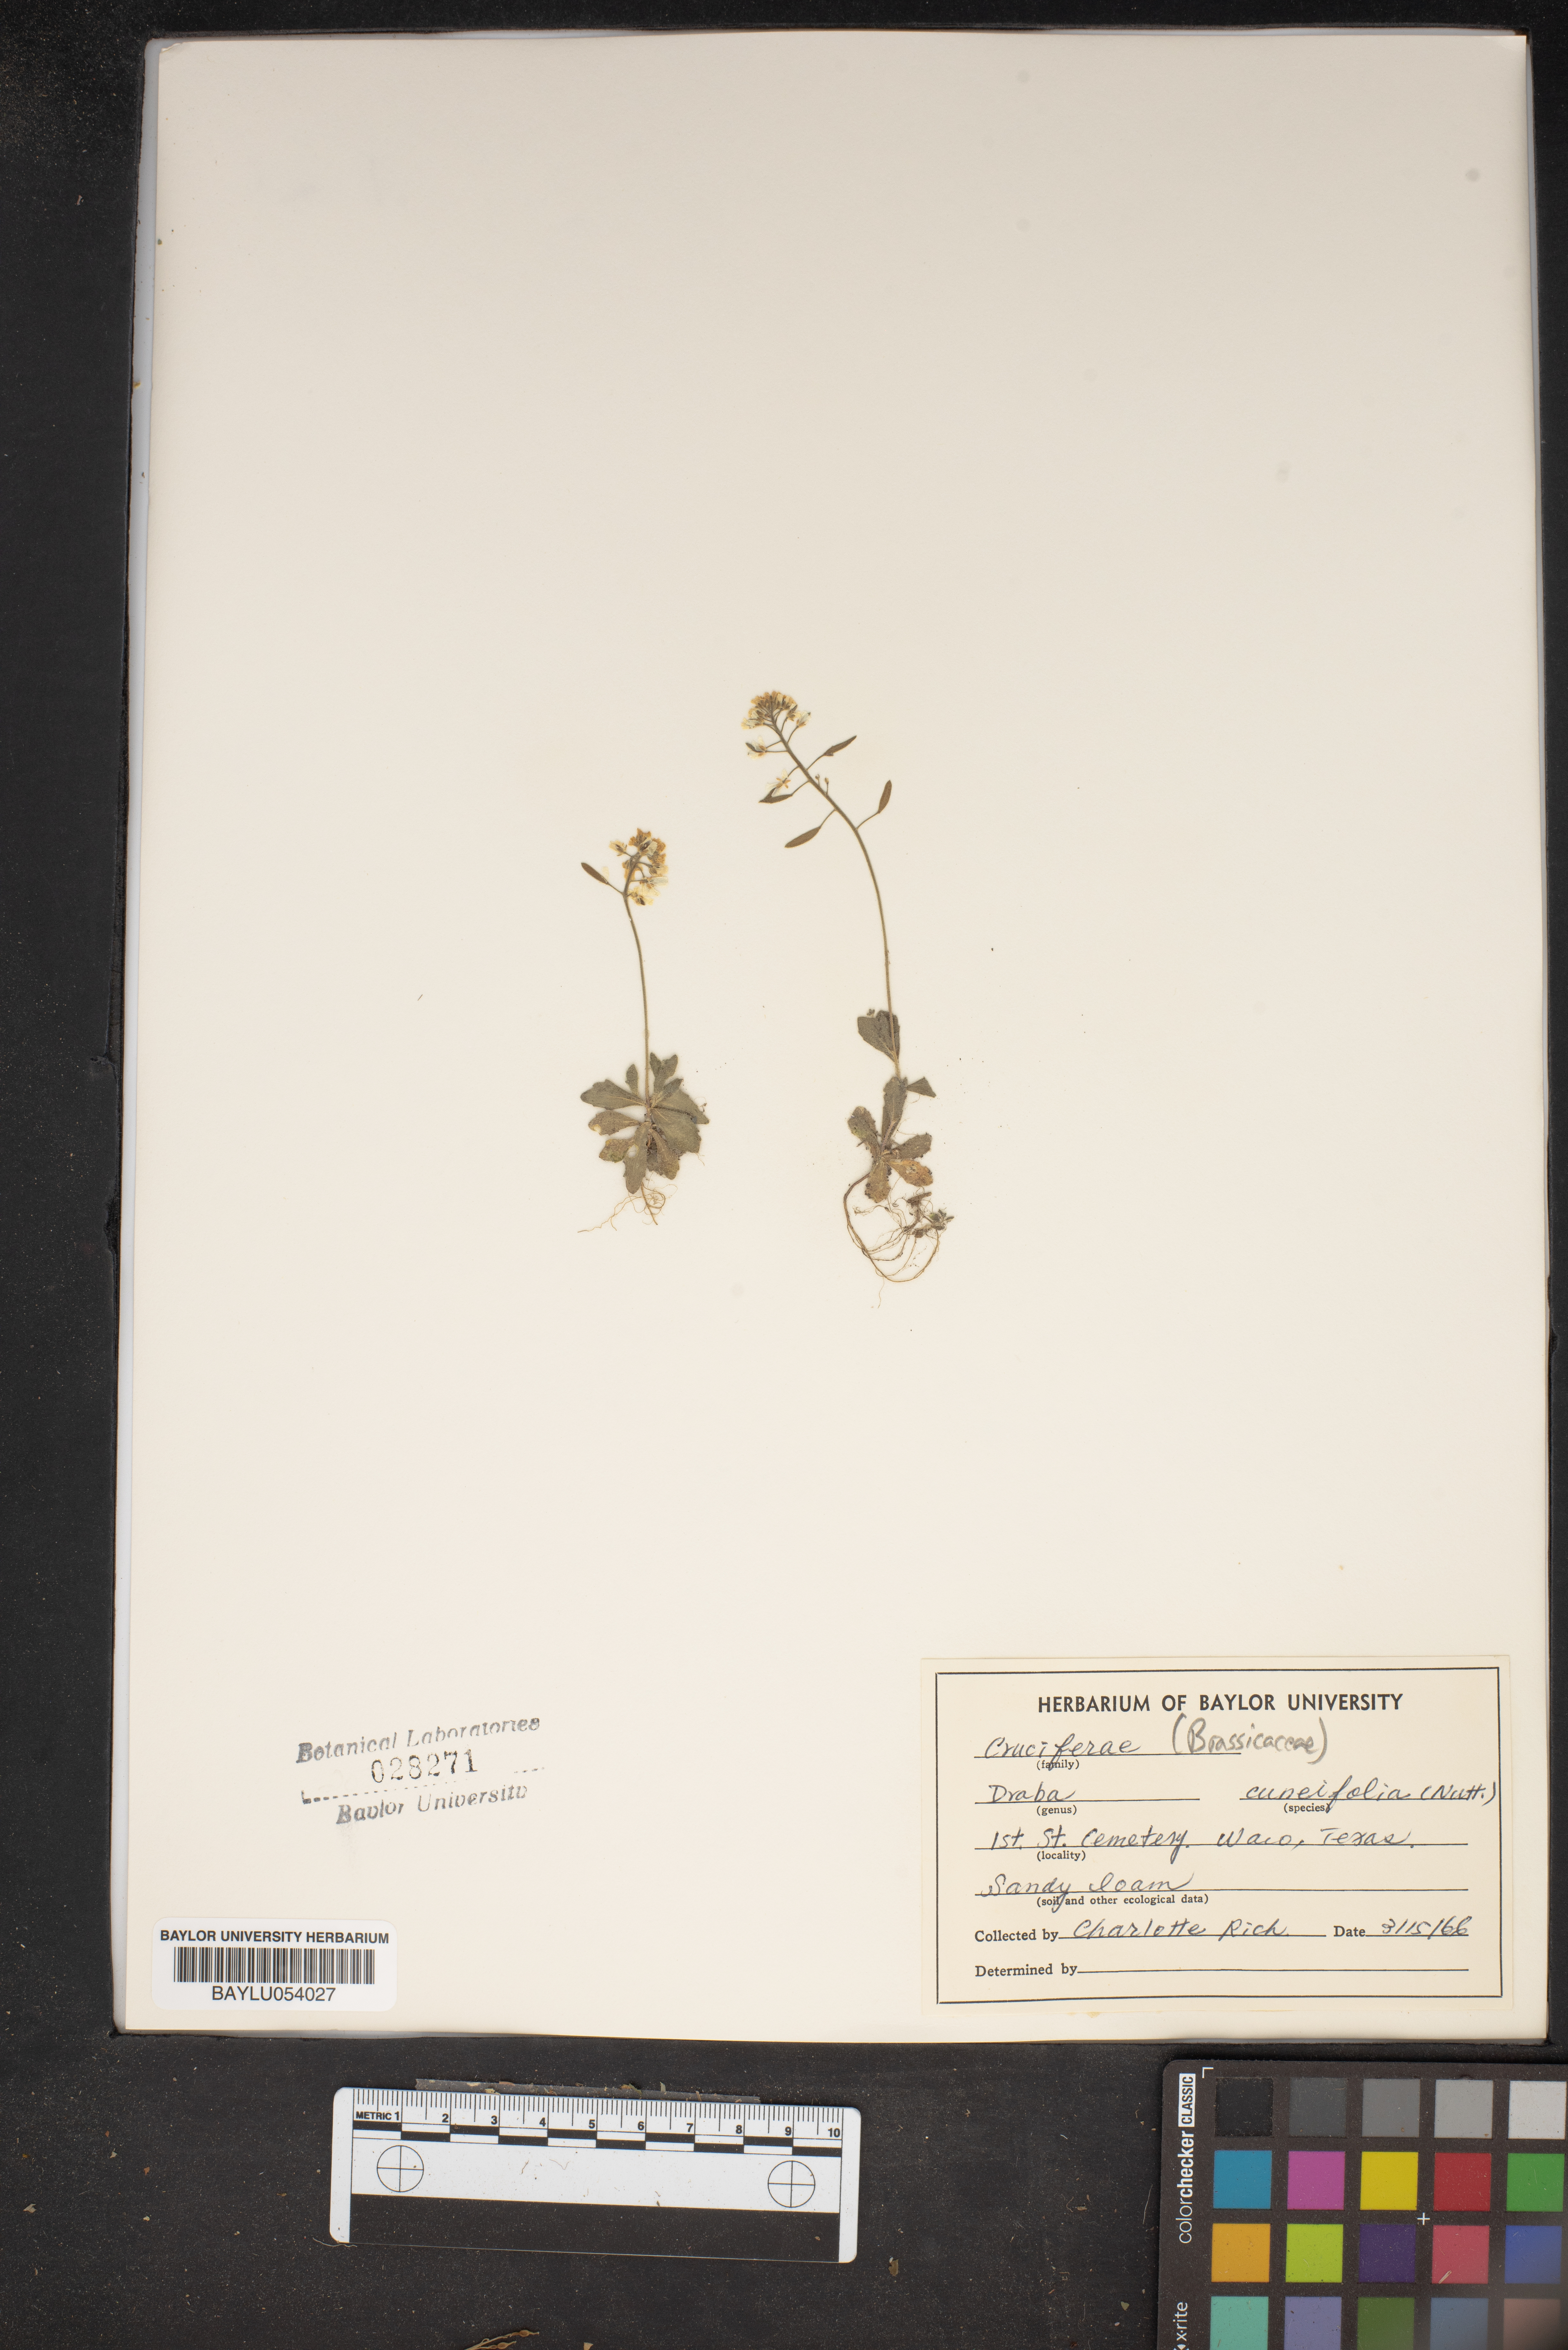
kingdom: Plantae
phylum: Tracheophyta
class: Magnoliopsida
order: Brassicales
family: Brassicaceae
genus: Tomostima
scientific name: Tomostima cuneifolia
